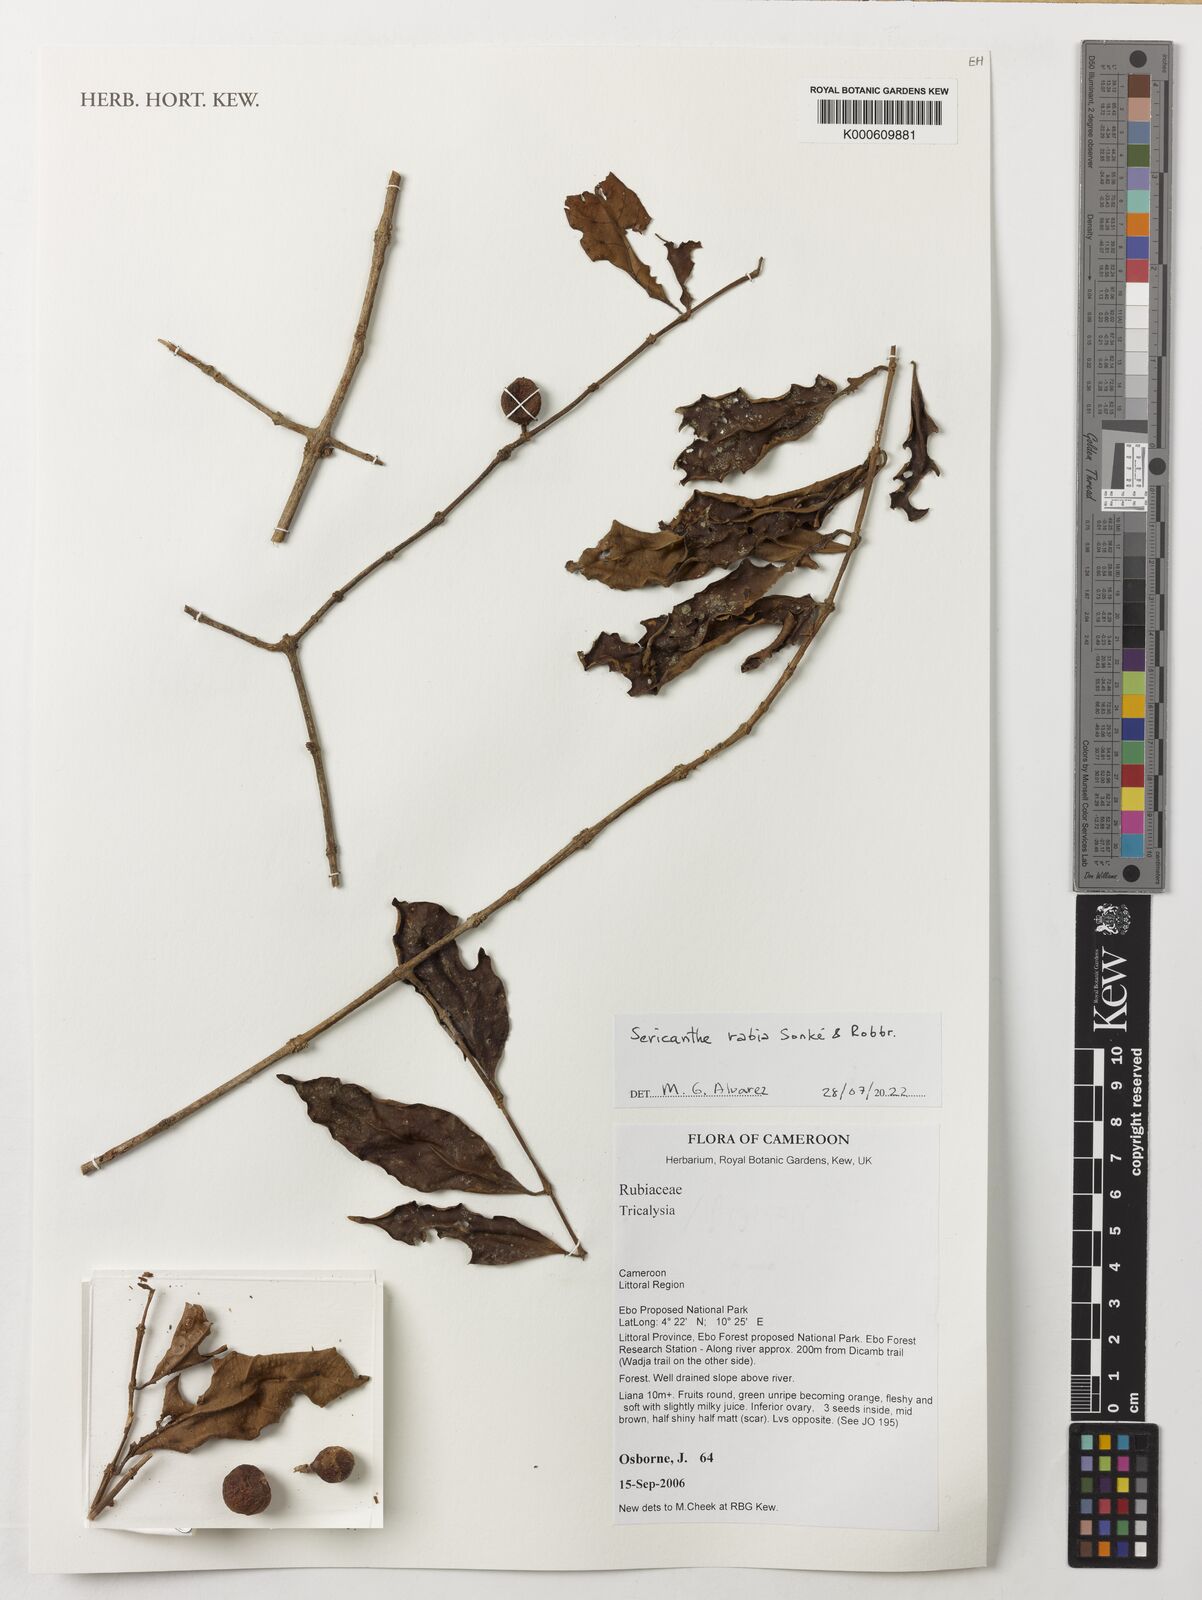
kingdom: Plantae
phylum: Tracheophyta
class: Magnoliopsida
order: Gentianales
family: Rubiaceae
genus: Sericanthe
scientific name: Sericanthe rabia
